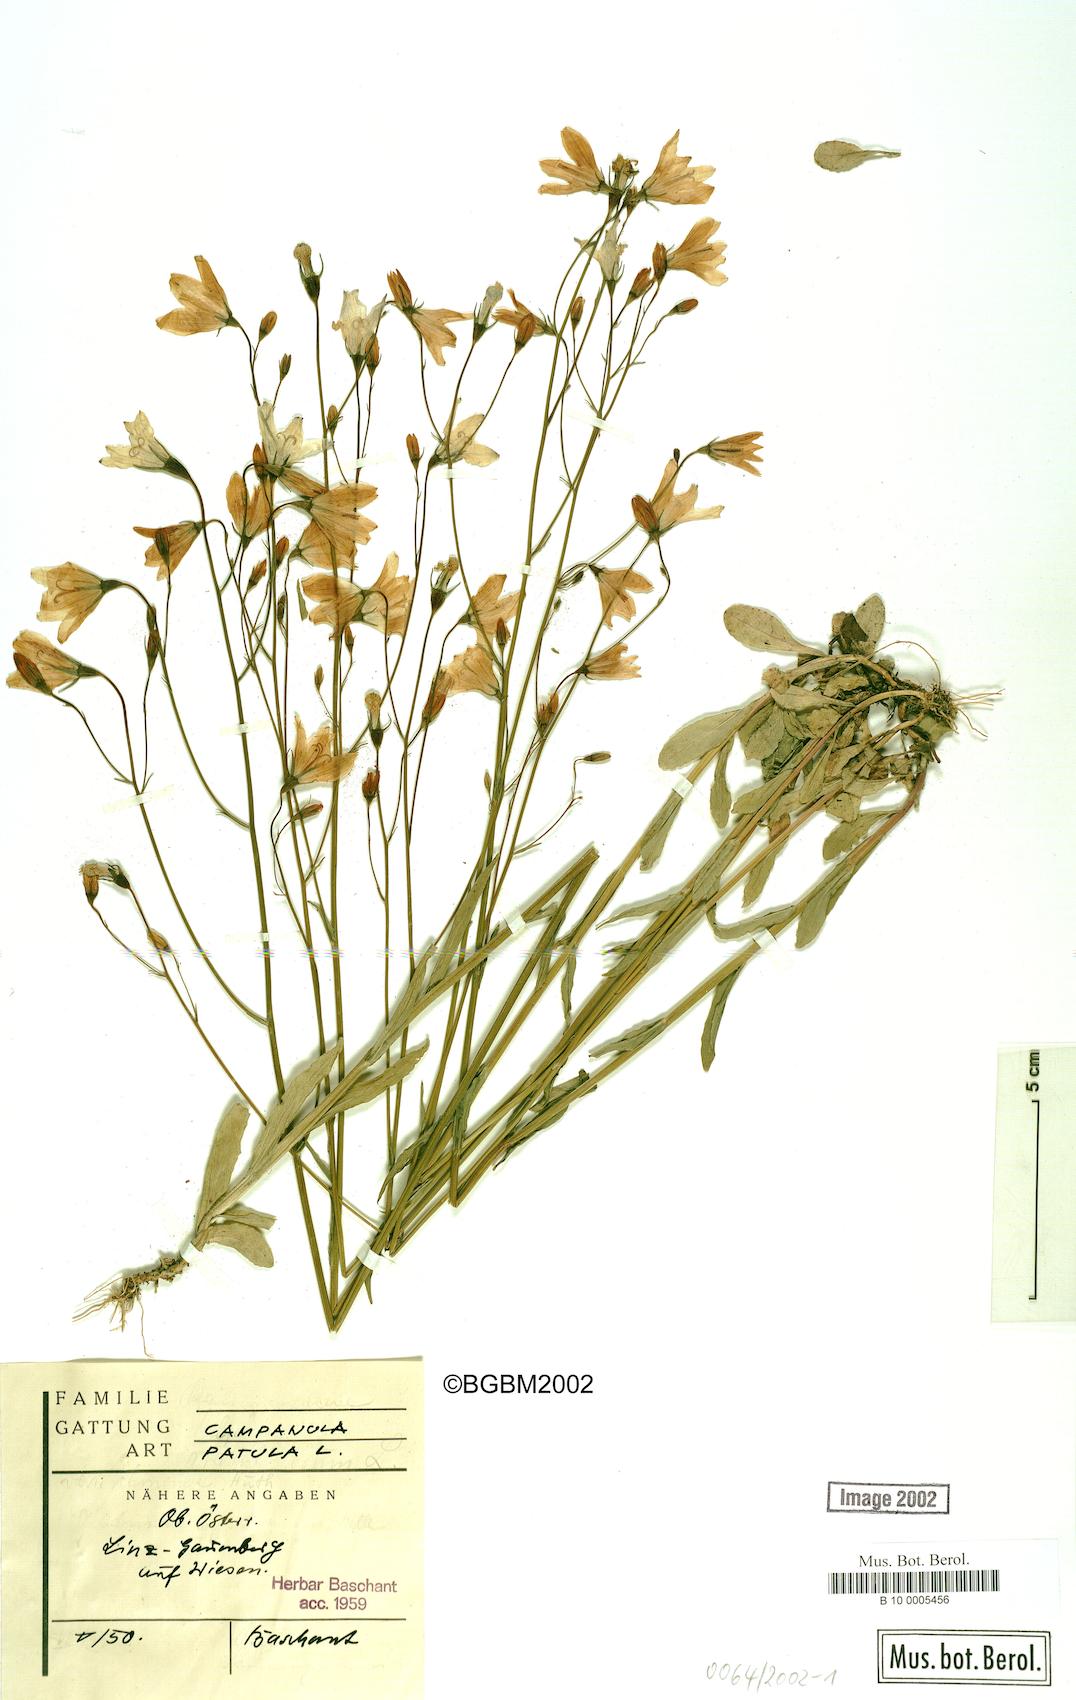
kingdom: Plantae
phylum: Tracheophyta
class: Magnoliopsida
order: Asterales
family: Campanulaceae
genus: Campanula
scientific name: Campanula patula
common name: Spreading bellflower
